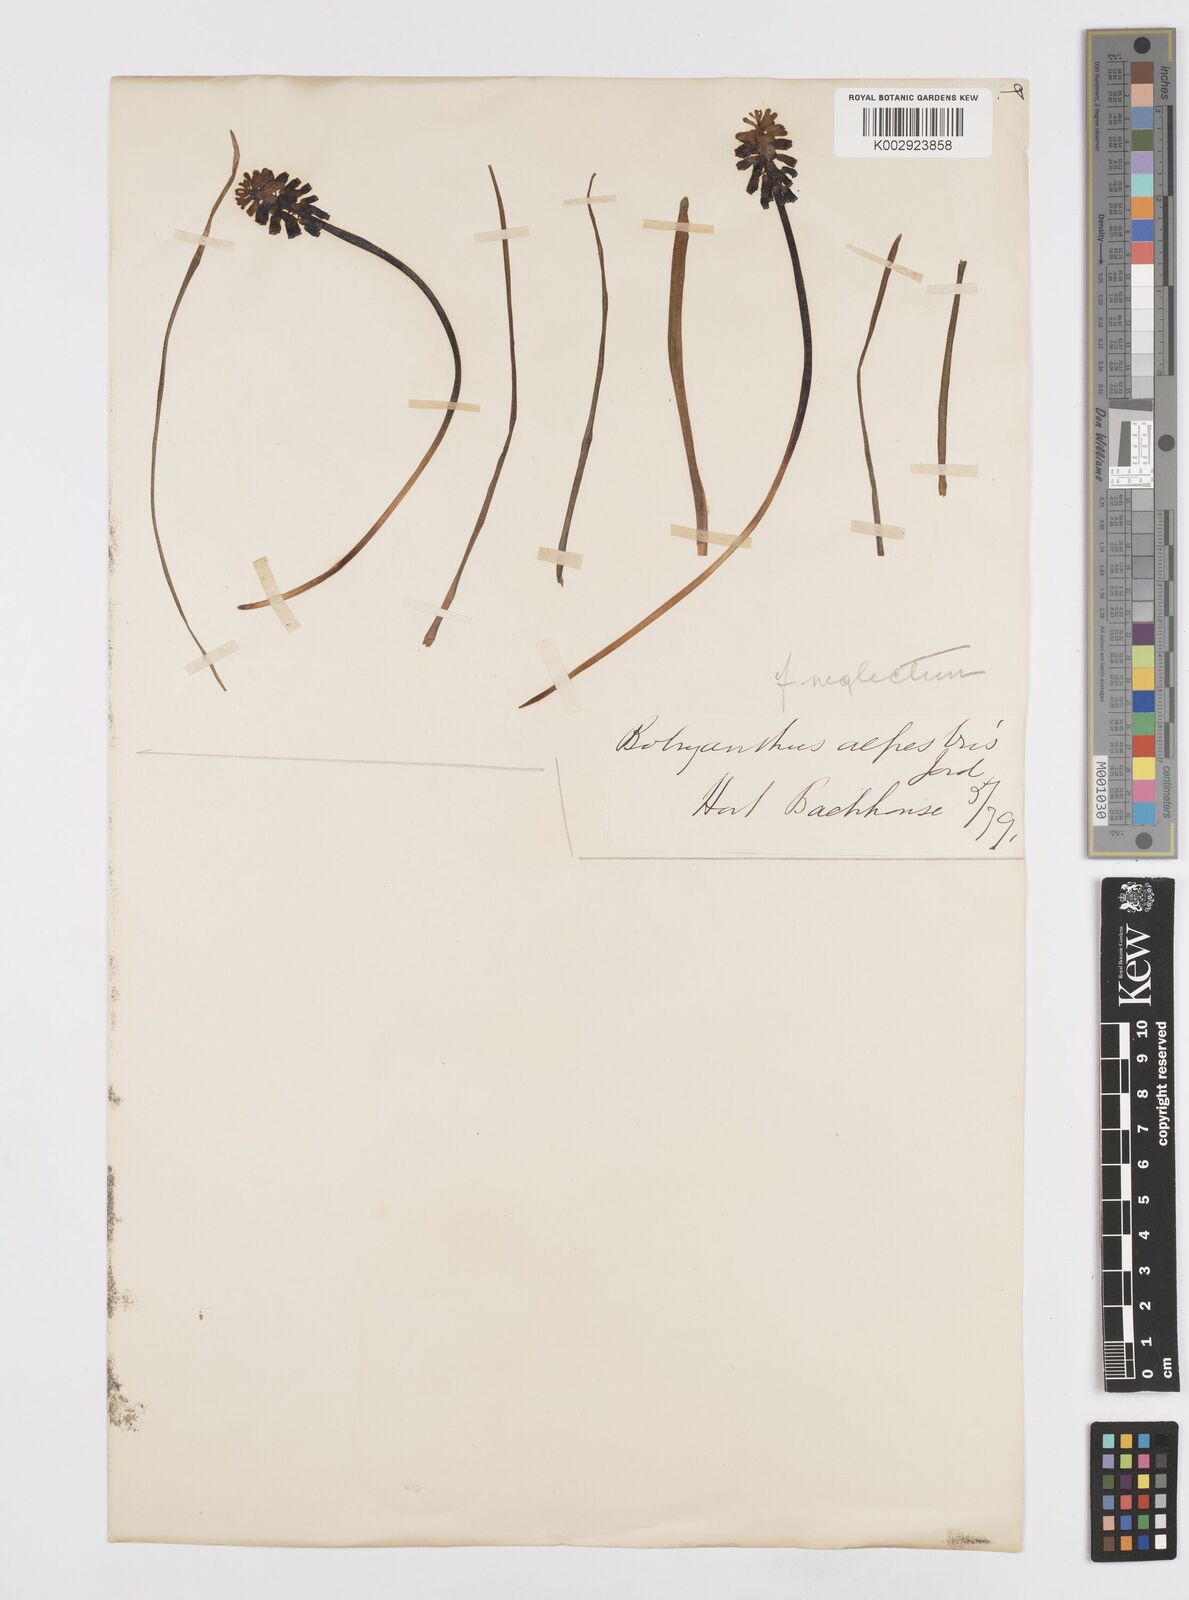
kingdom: Plantae
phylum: Tracheophyta
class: Liliopsida
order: Asparagales
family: Asparagaceae
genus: Muscari
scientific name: Muscari neglectum
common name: Grape-hyacinth
